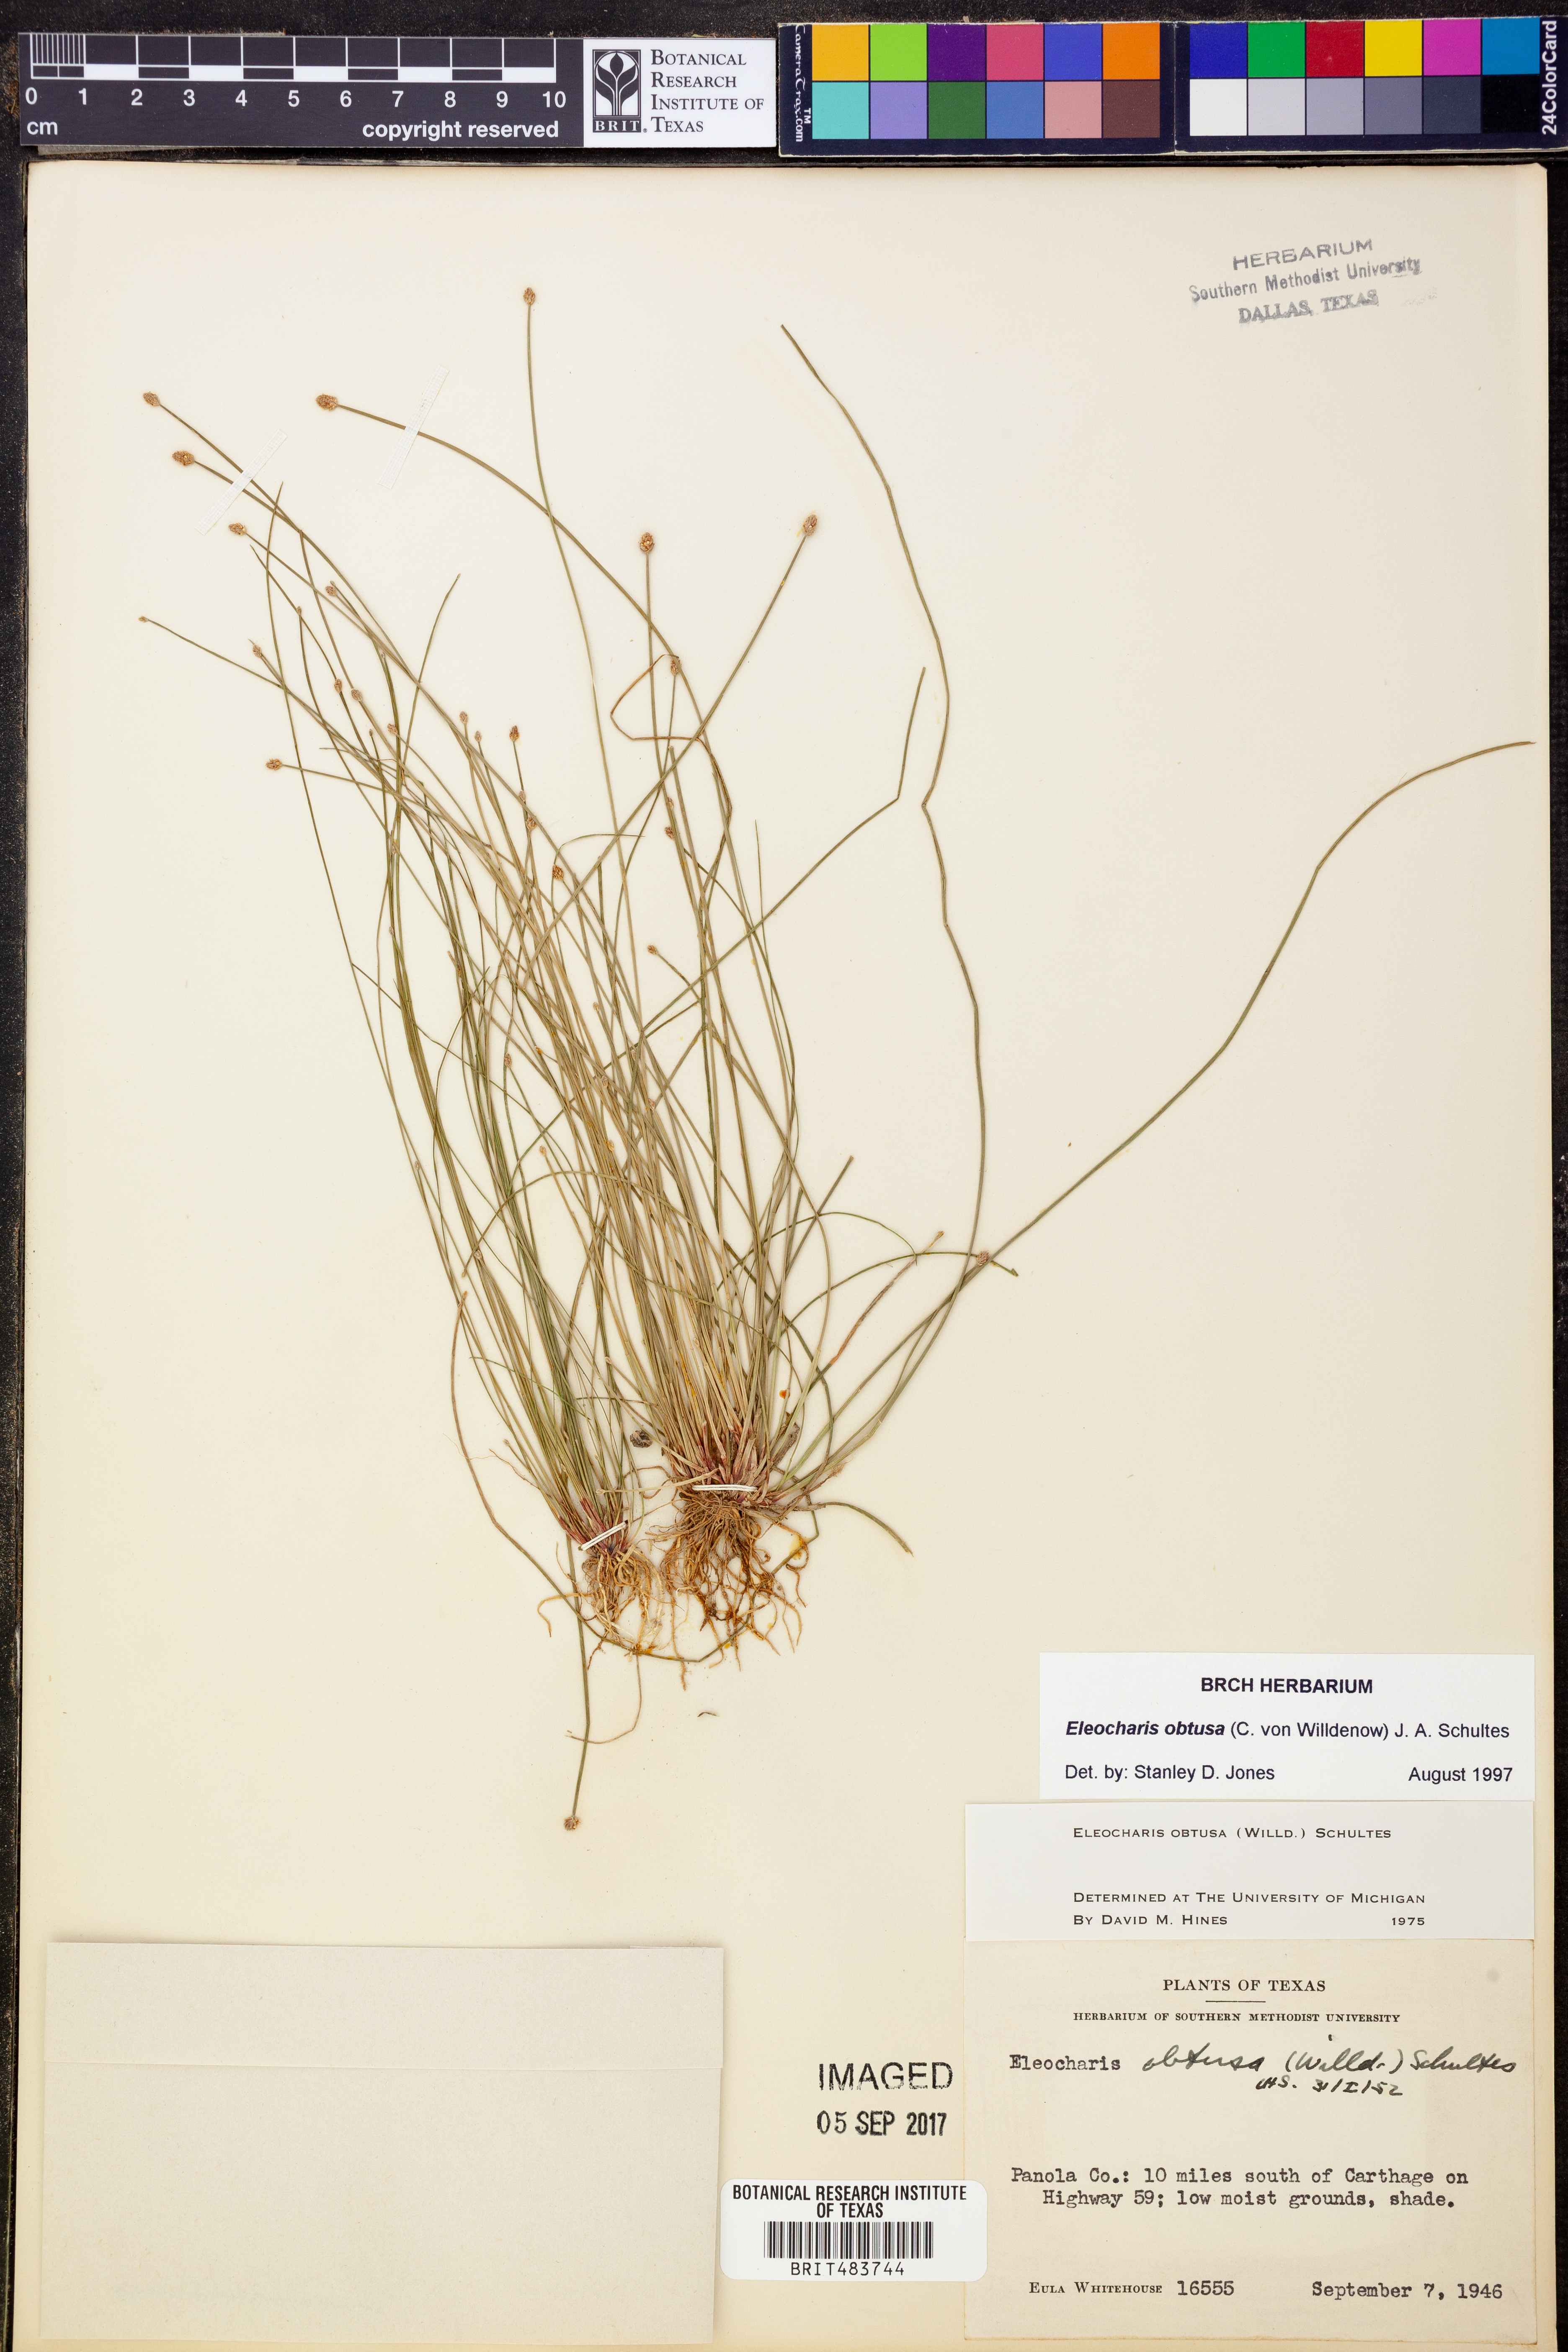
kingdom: Plantae
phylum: Tracheophyta
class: Liliopsida
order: Poales
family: Cyperaceae
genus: Eleocharis
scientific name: Eleocharis obtusa
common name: Blunt spikerush
